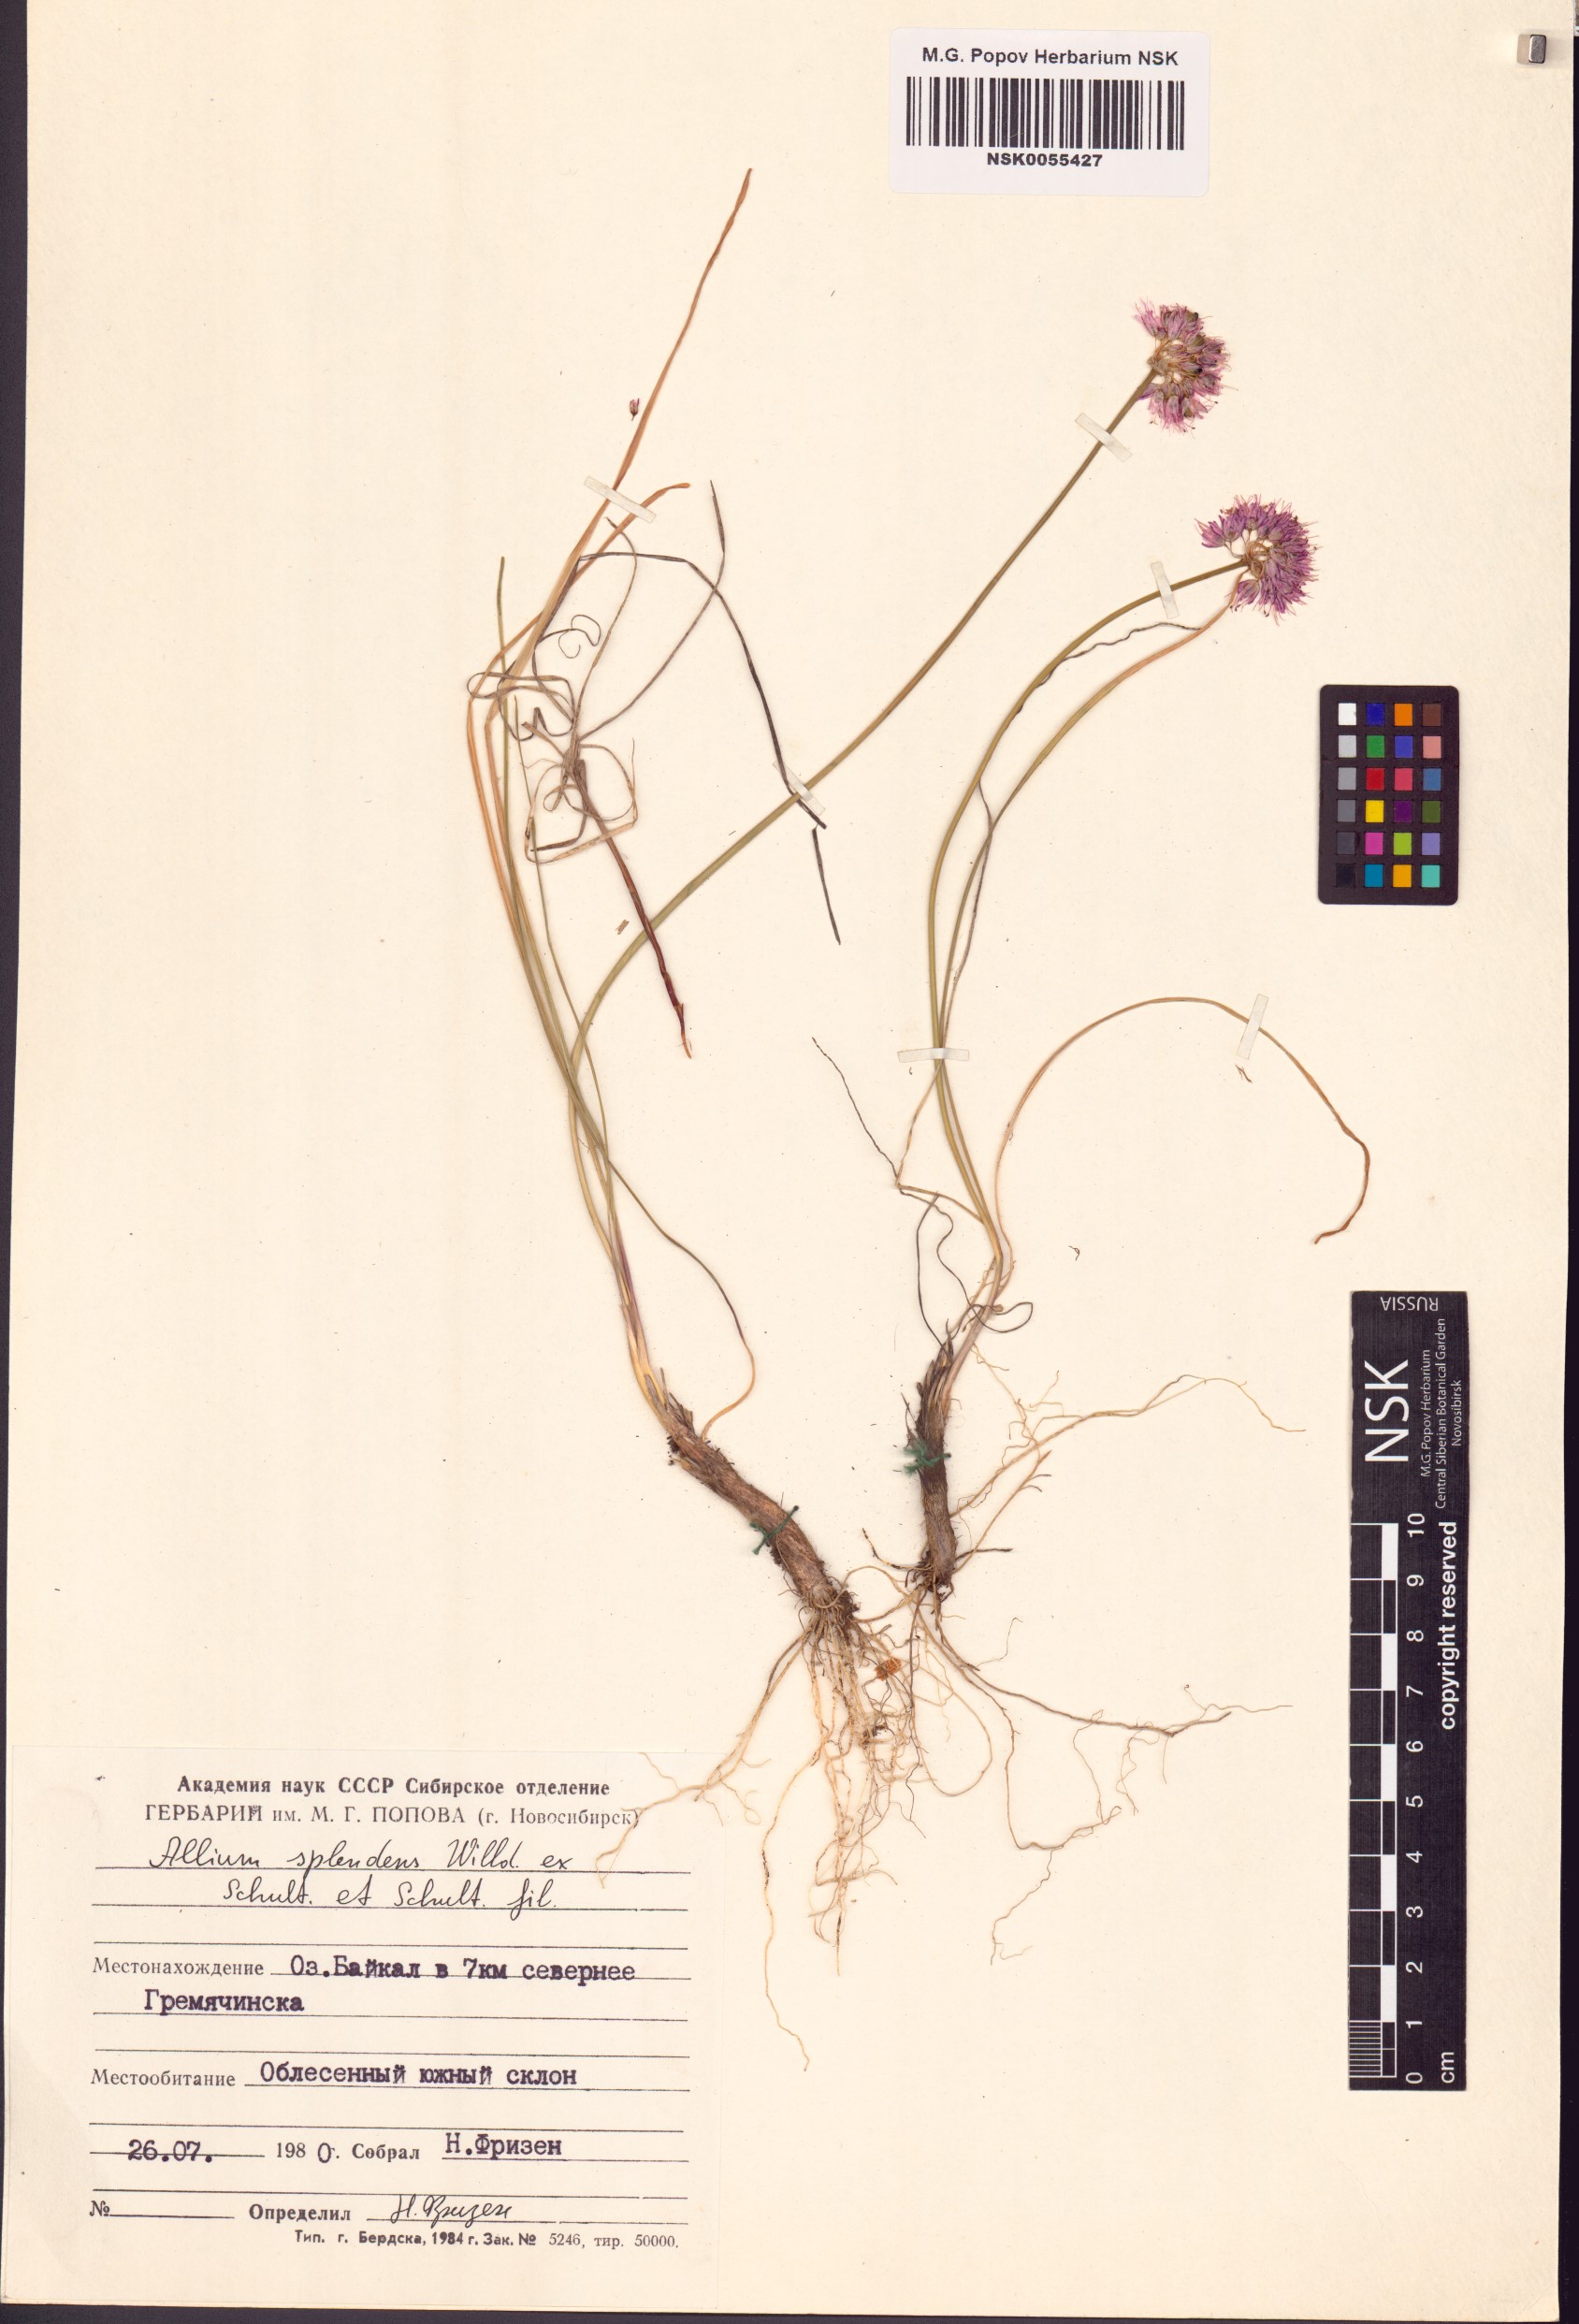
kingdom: Plantae
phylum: Tracheophyta
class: Liliopsida
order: Asparagales
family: Amaryllidaceae
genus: Allium
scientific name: Allium splendens
